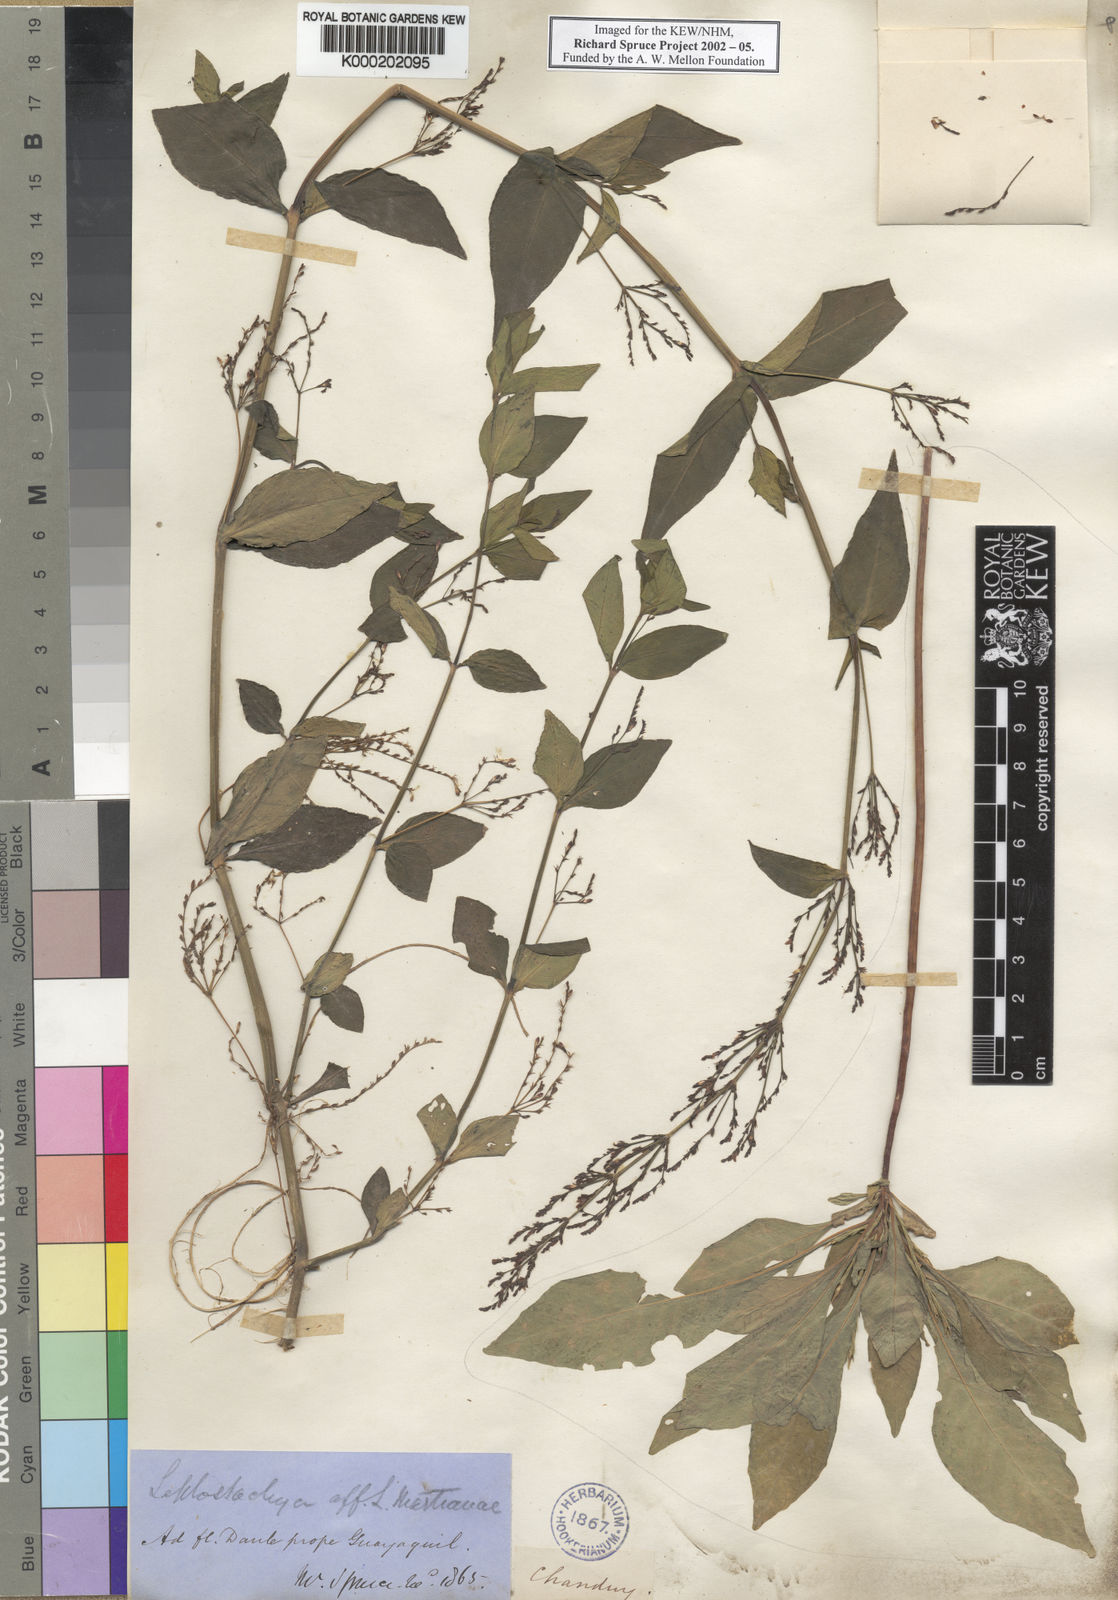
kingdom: Plantae
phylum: Tracheophyta
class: Magnoliopsida
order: Lamiales
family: Acanthaceae
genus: Dianthera
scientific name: Dianthera comata
